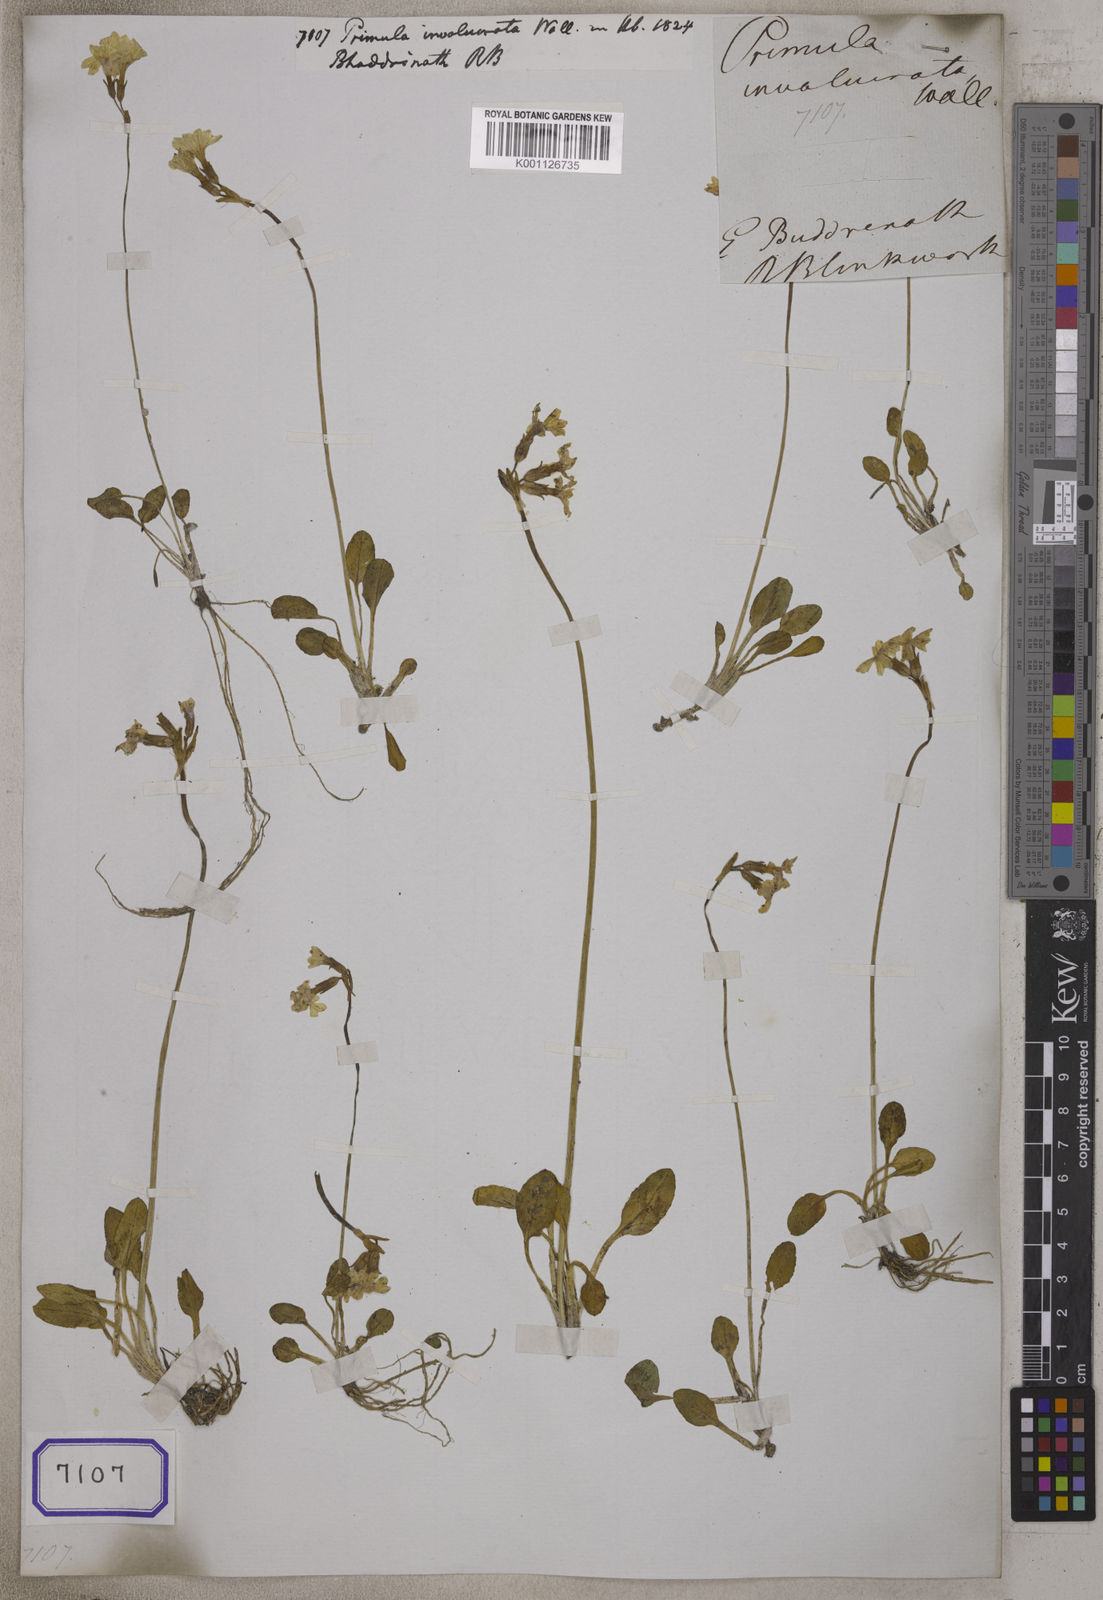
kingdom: Plantae
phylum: Tracheophyta
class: Magnoliopsida
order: Ericales
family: Primulaceae
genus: Primula
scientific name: Primula munroi
